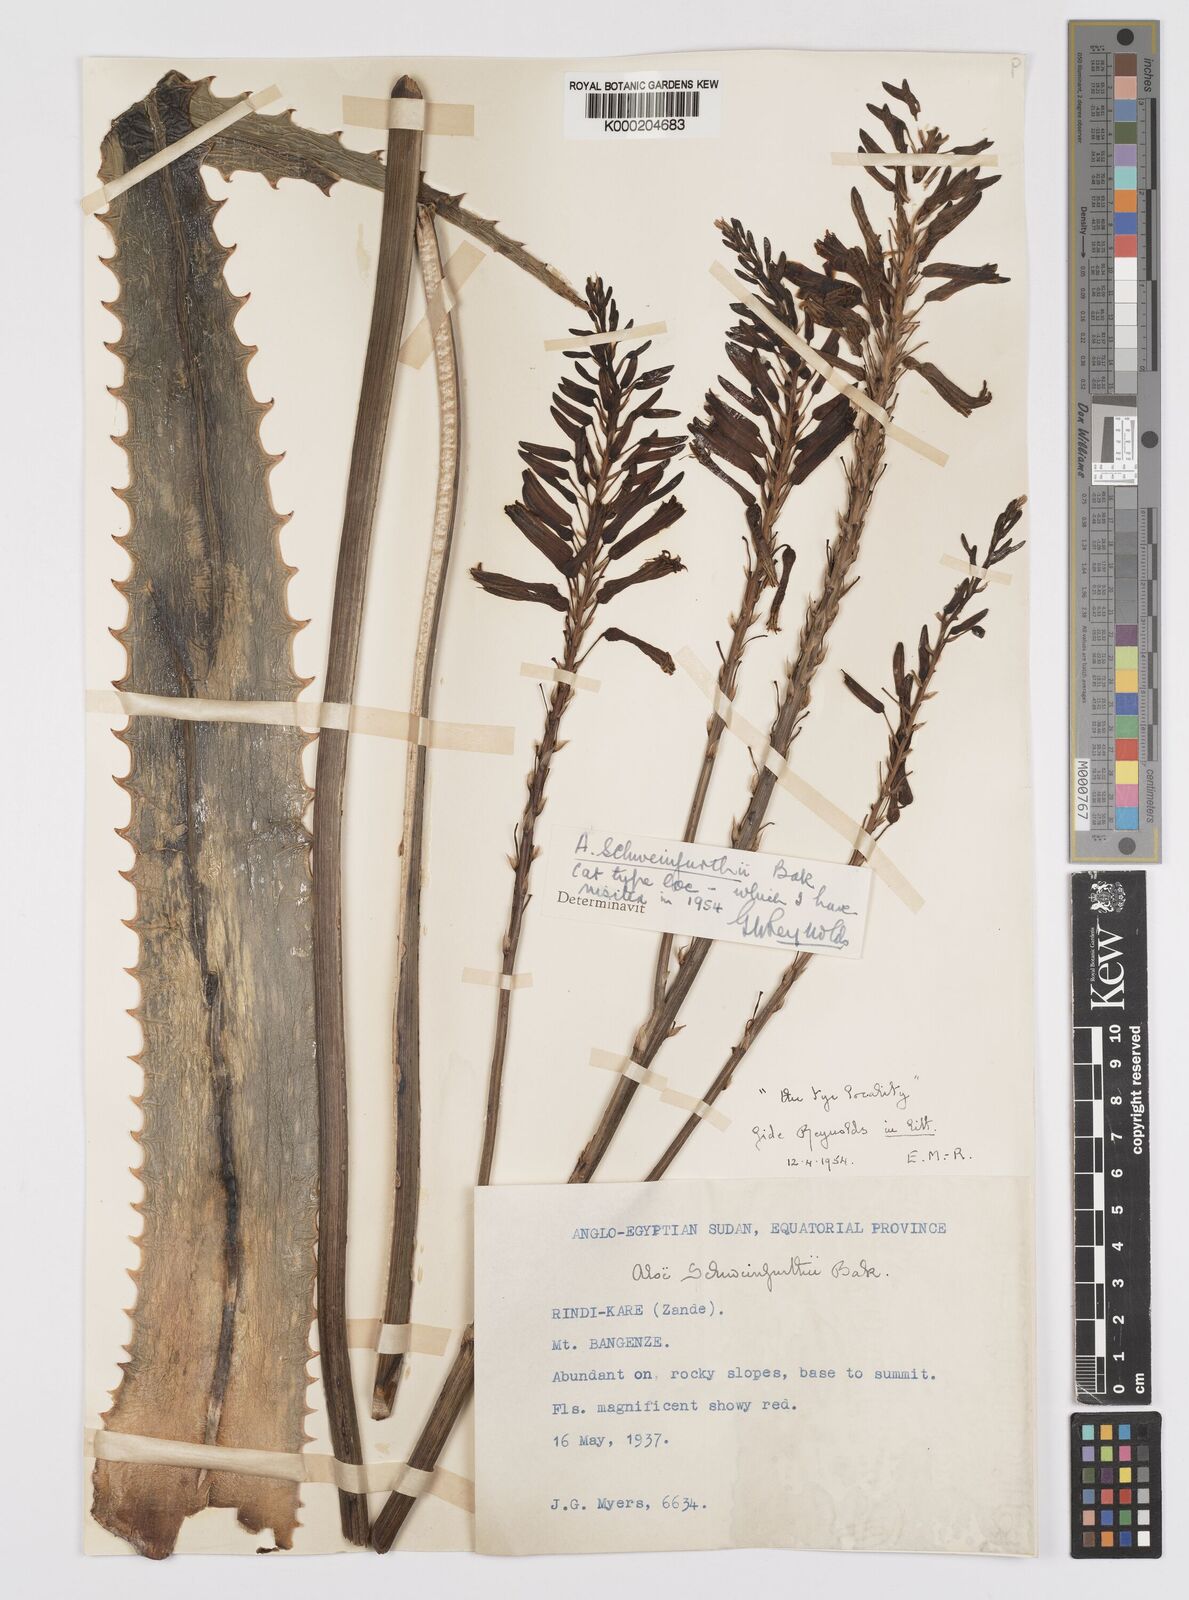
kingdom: Plantae
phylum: Tracheophyta
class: Liliopsida
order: Asparagales
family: Asphodelaceae
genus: Aloe
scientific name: Aloe schweinfurthii
